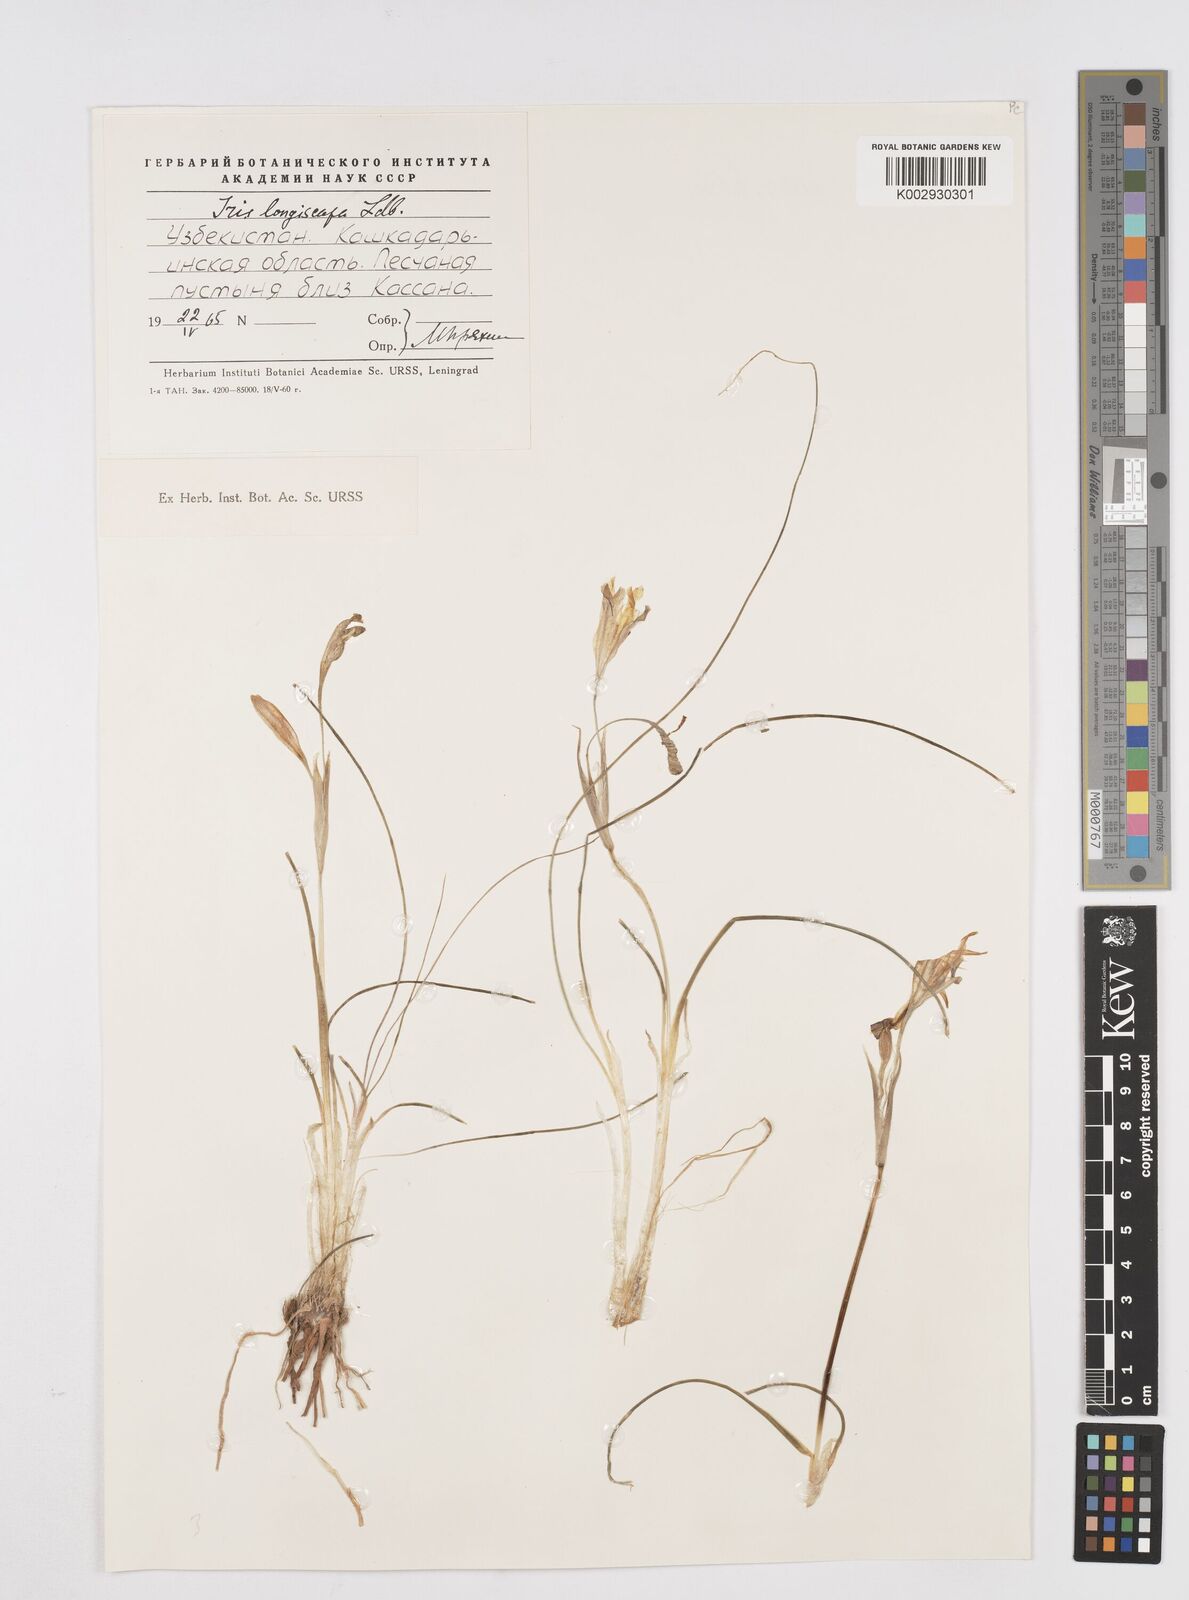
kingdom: Plantae
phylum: Tracheophyta
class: Liliopsida
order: Asparagales
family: Iridaceae
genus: Iris
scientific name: Iris longiscapa
